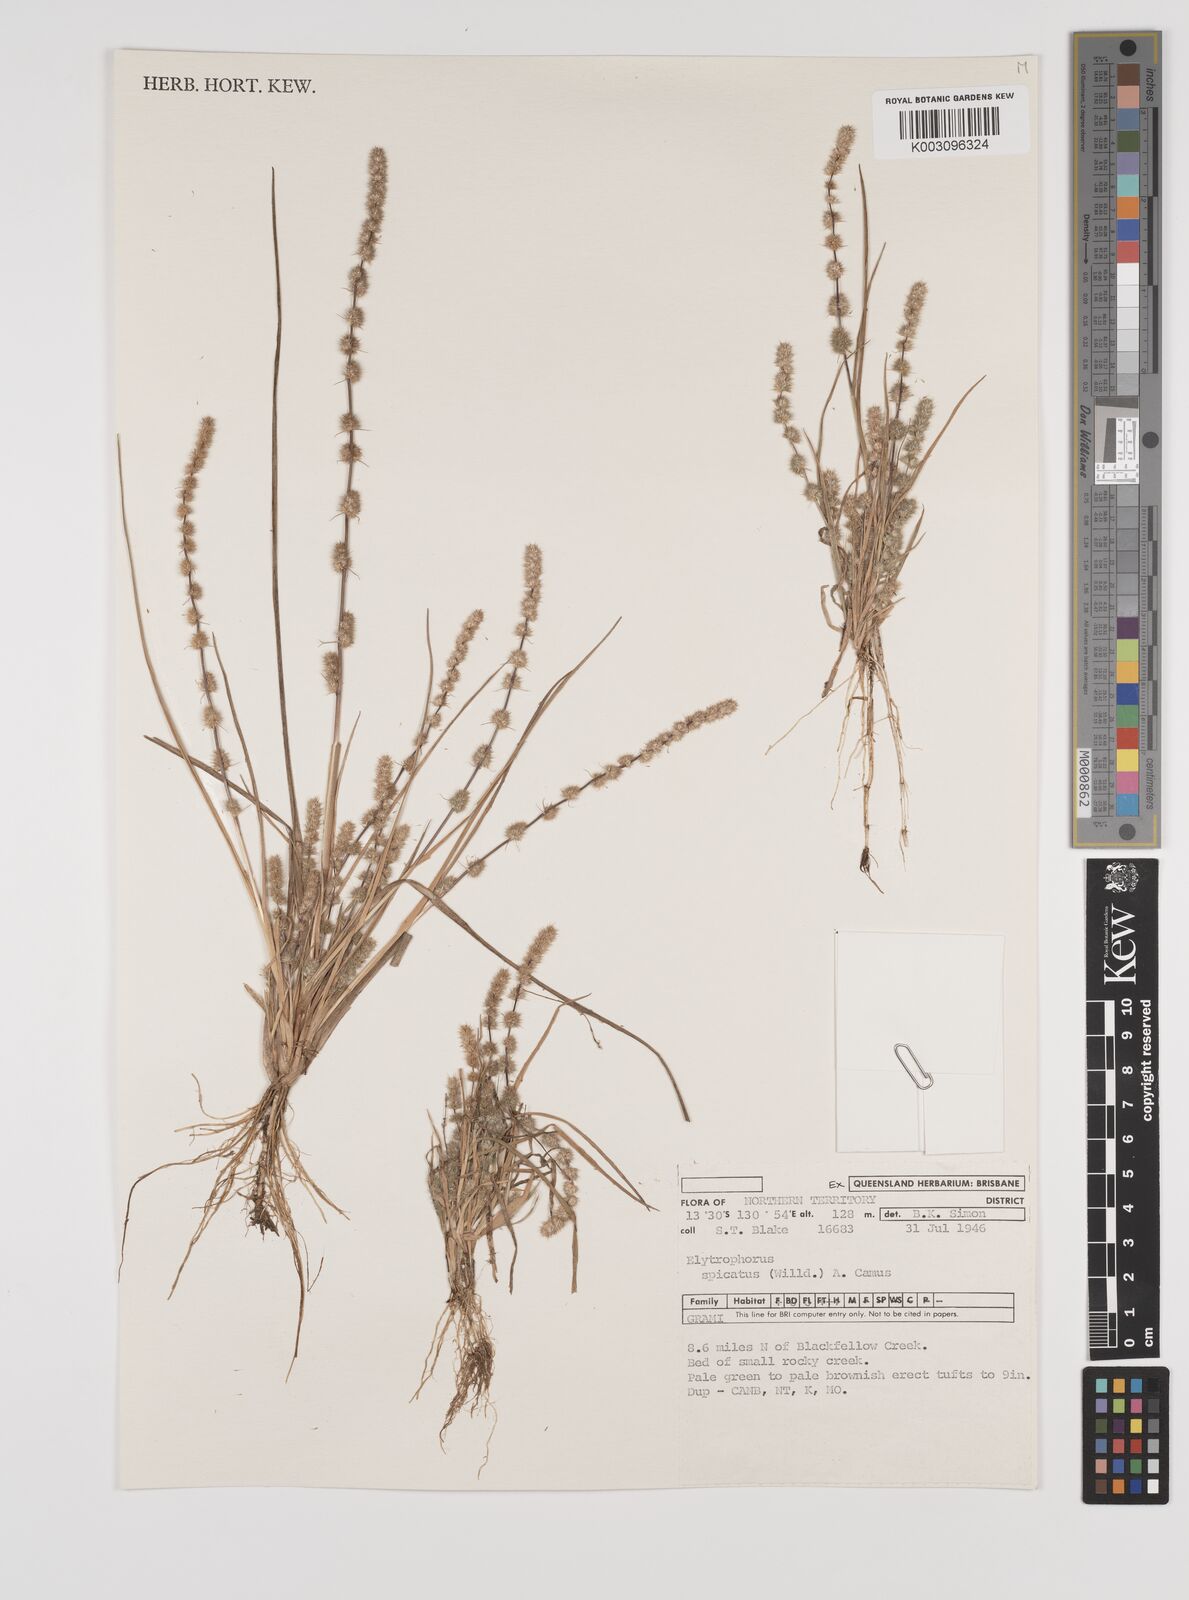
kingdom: Plantae
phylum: Tracheophyta
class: Liliopsida
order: Poales
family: Poaceae
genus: Elytrophorus
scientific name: Elytrophorus spicatus
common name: Spike grass
